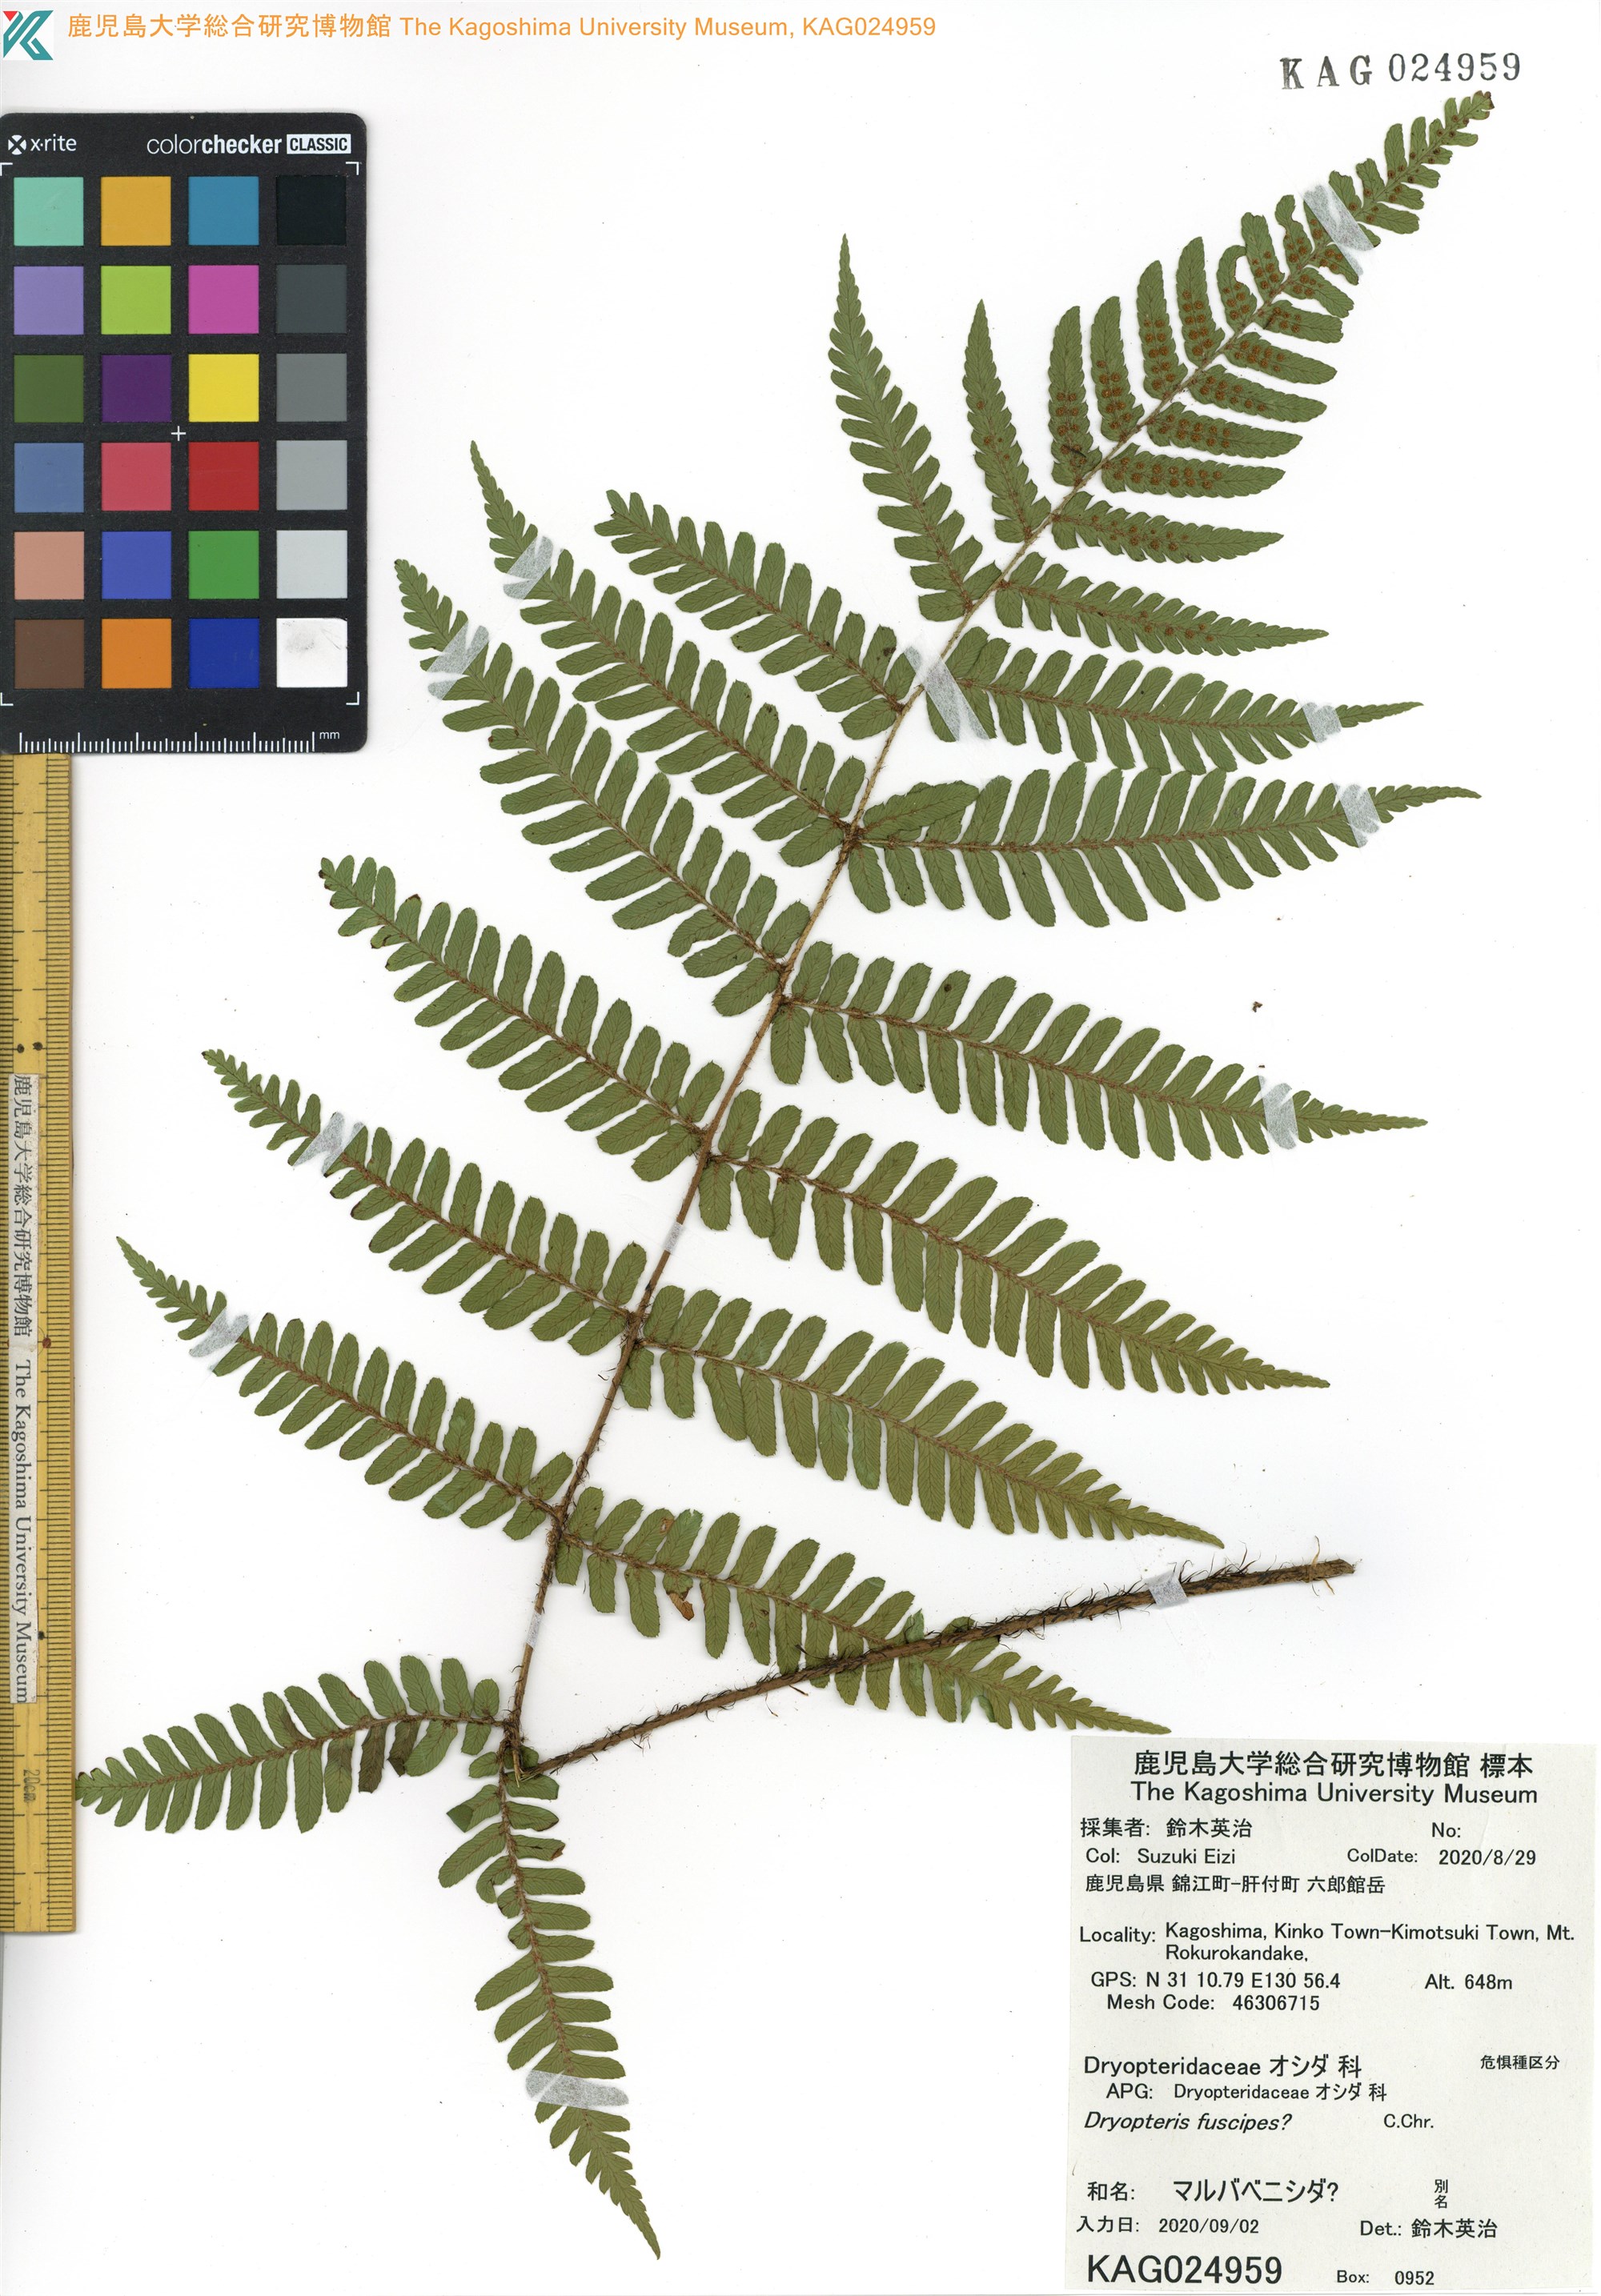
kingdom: Plantae
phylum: Tracheophyta
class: Polypodiopsida
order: Polypodiales
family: Dryopteridaceae
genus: Dryopteris
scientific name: Dryopteris fuscipes
